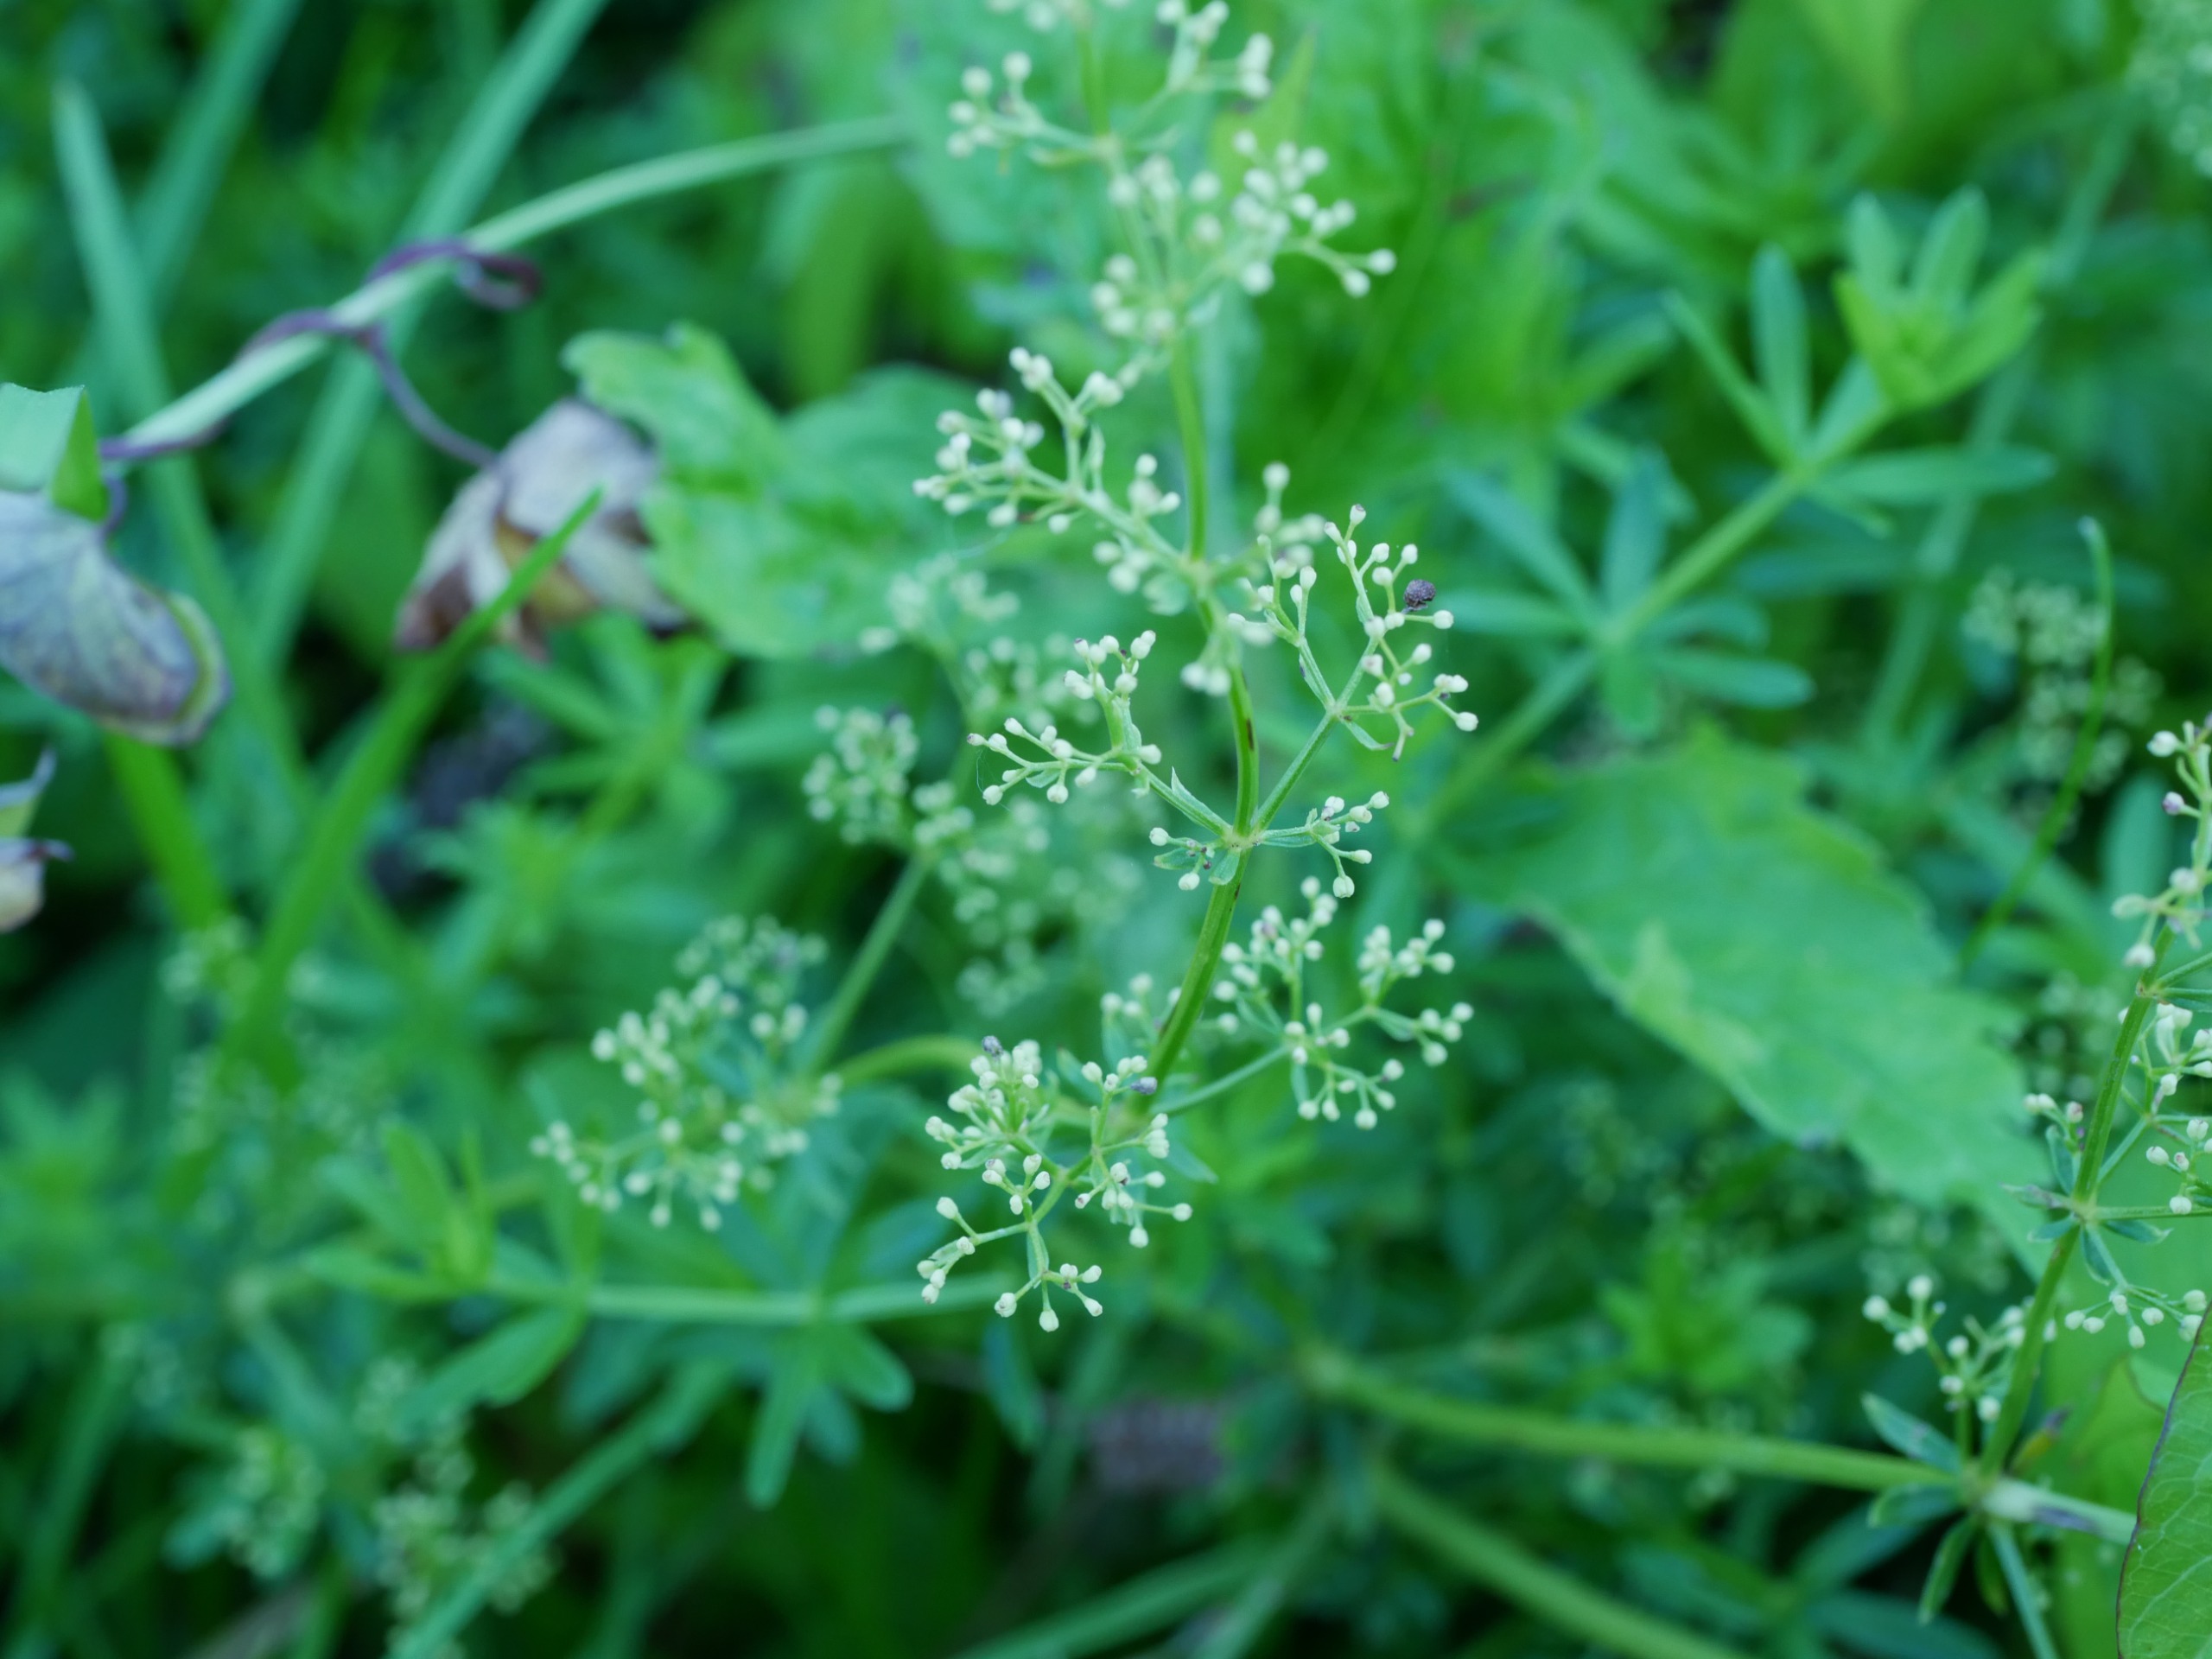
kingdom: Plantae
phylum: Tracheophyta
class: Magnoliopsida
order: Gentianales
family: Rubiaceae
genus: Galium
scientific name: Galium mollugo
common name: Hvid snerre
